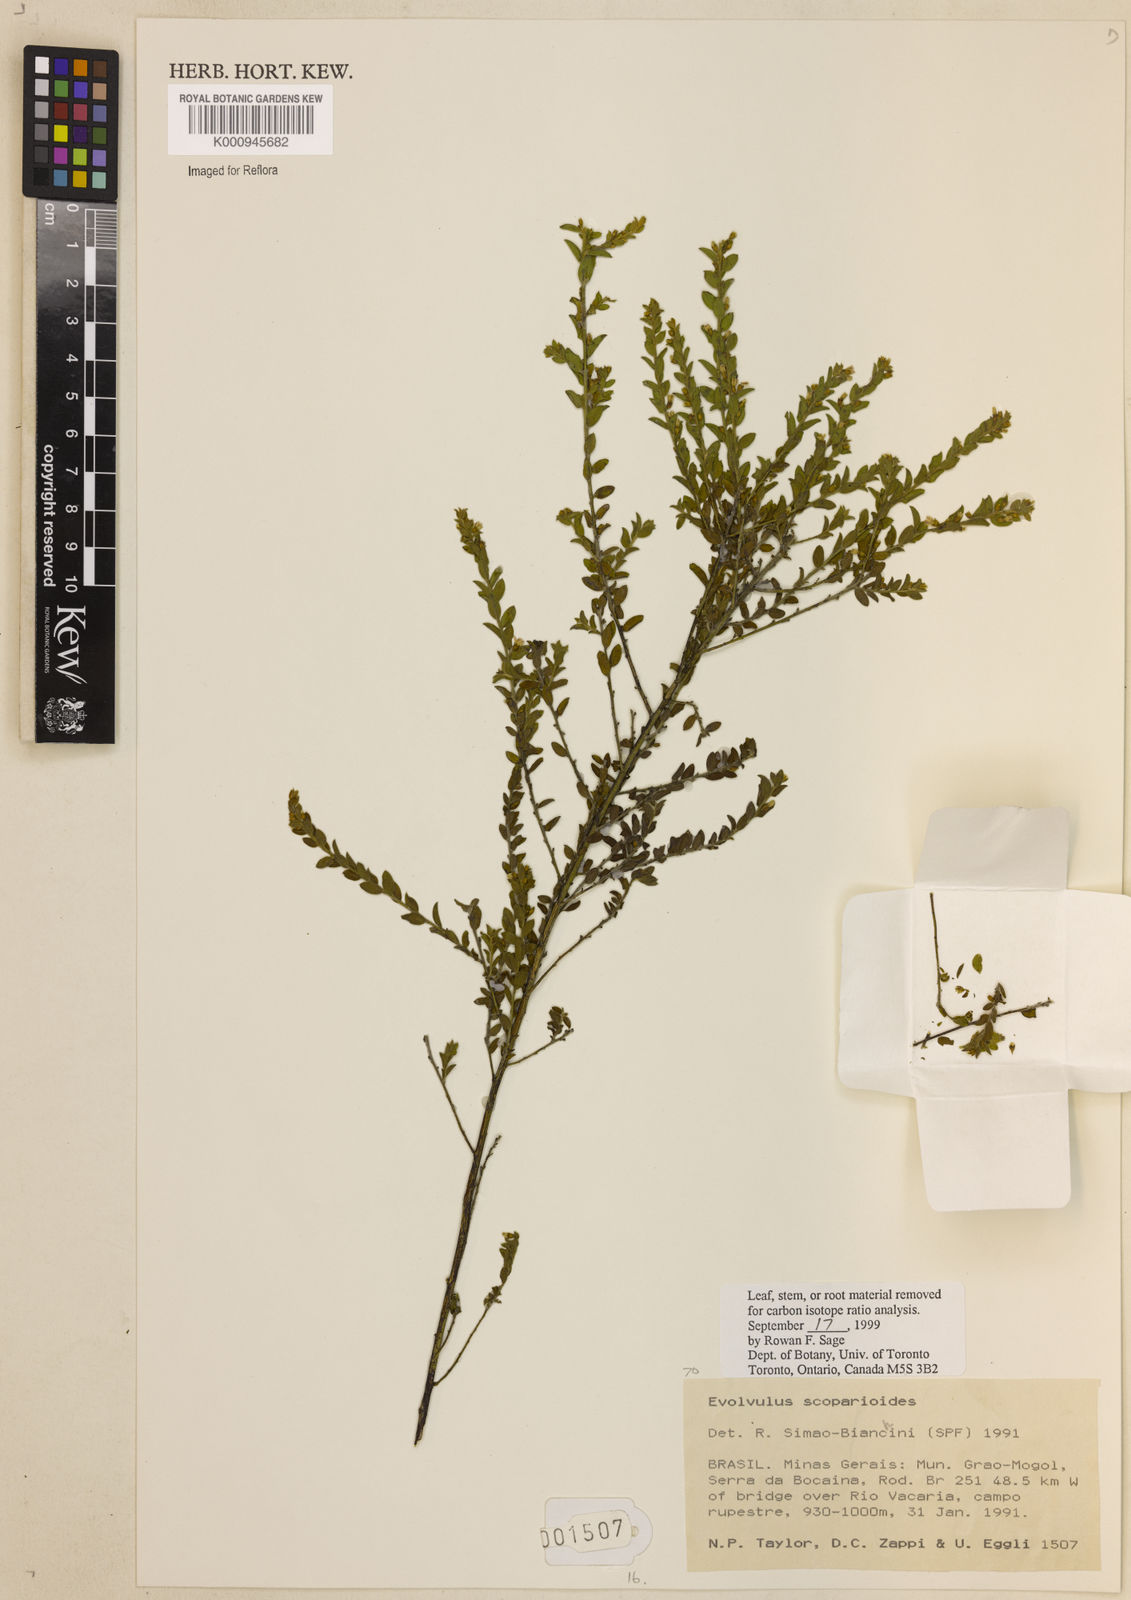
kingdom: Plantae
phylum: Tracheophyta
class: Magnoliopsida
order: Solanales
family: Convolvulaceae
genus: Evolvulus
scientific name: Evolvulus scoparioides
